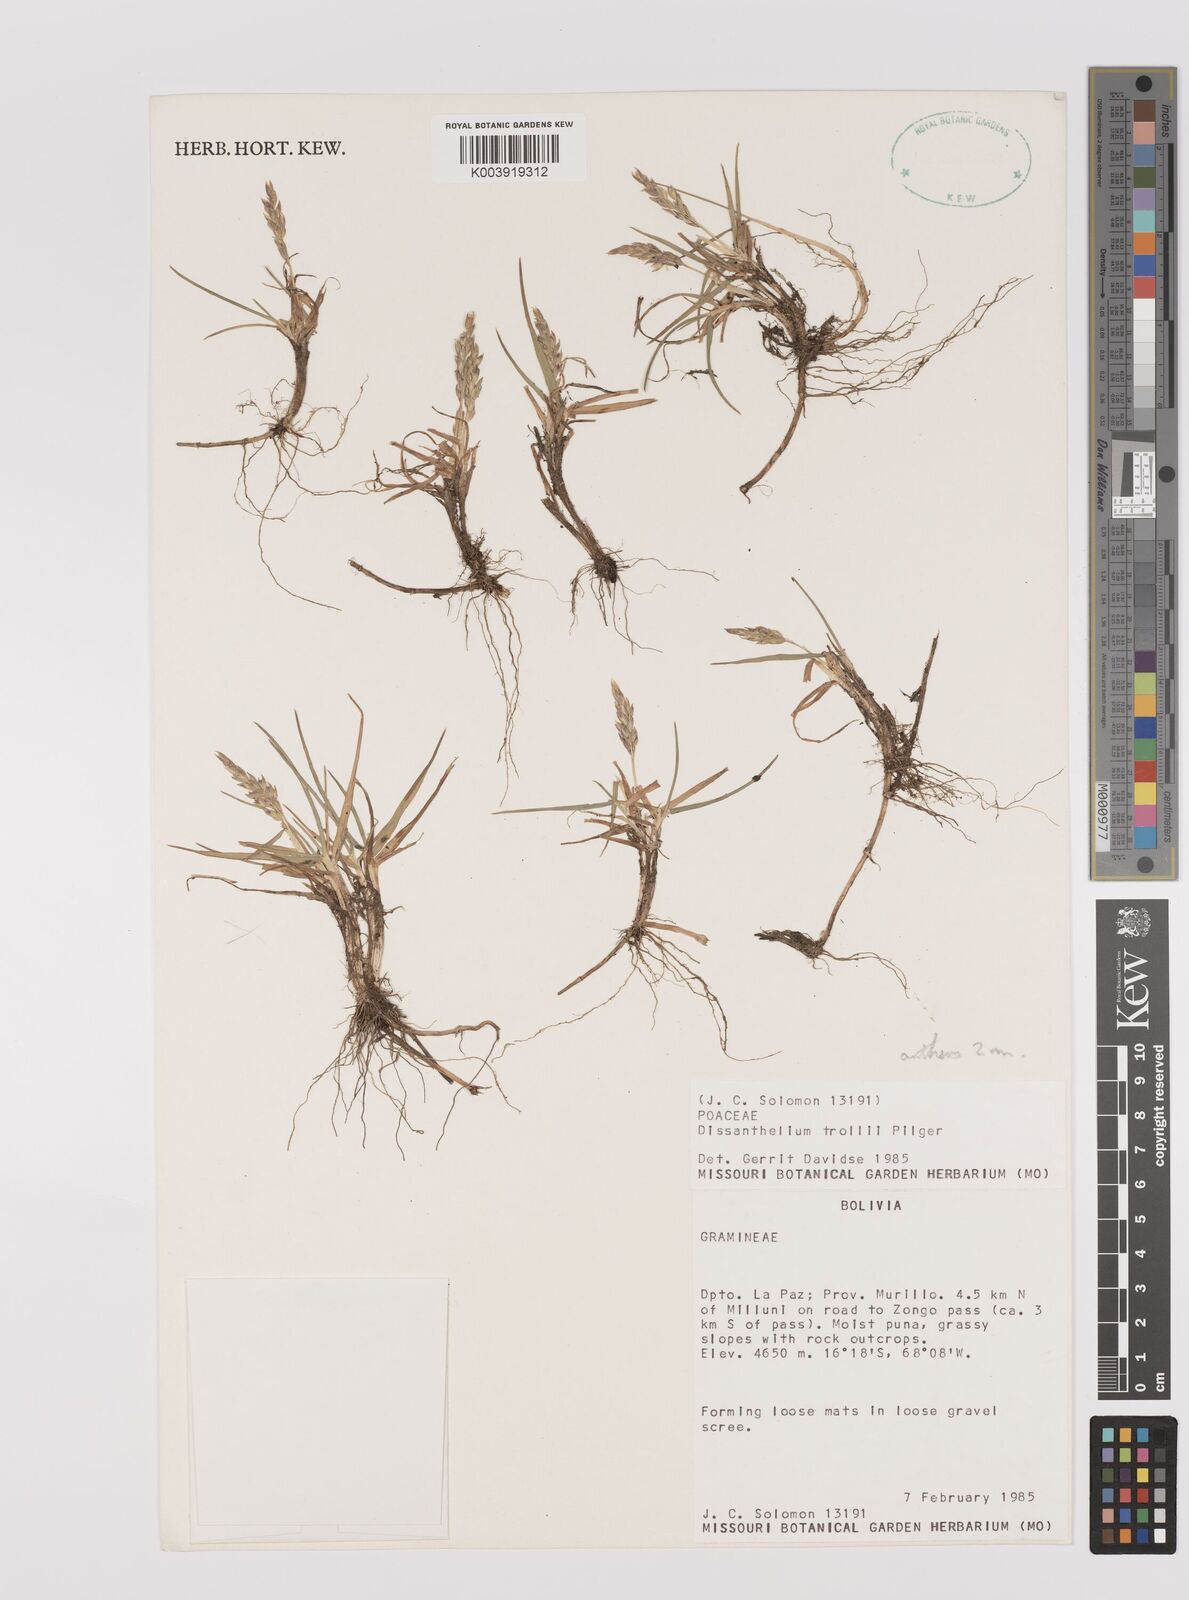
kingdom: Plantae
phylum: Tracheophyta
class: Liliopsida
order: Poales
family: Poaceae
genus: Poa
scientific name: Poa trollii
